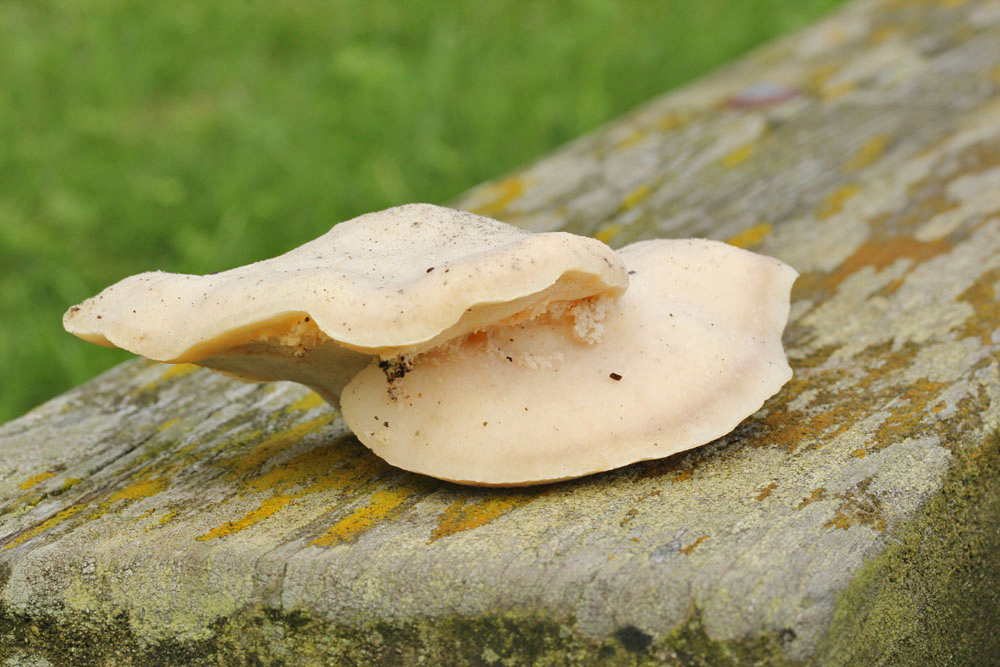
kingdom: Fungi
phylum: Basidiomycota
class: Agaricomycetes
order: Polyporales
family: Dacryobolaceae
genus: Postia
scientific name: Postia tephroleuca
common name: grålig kødporesvamp
